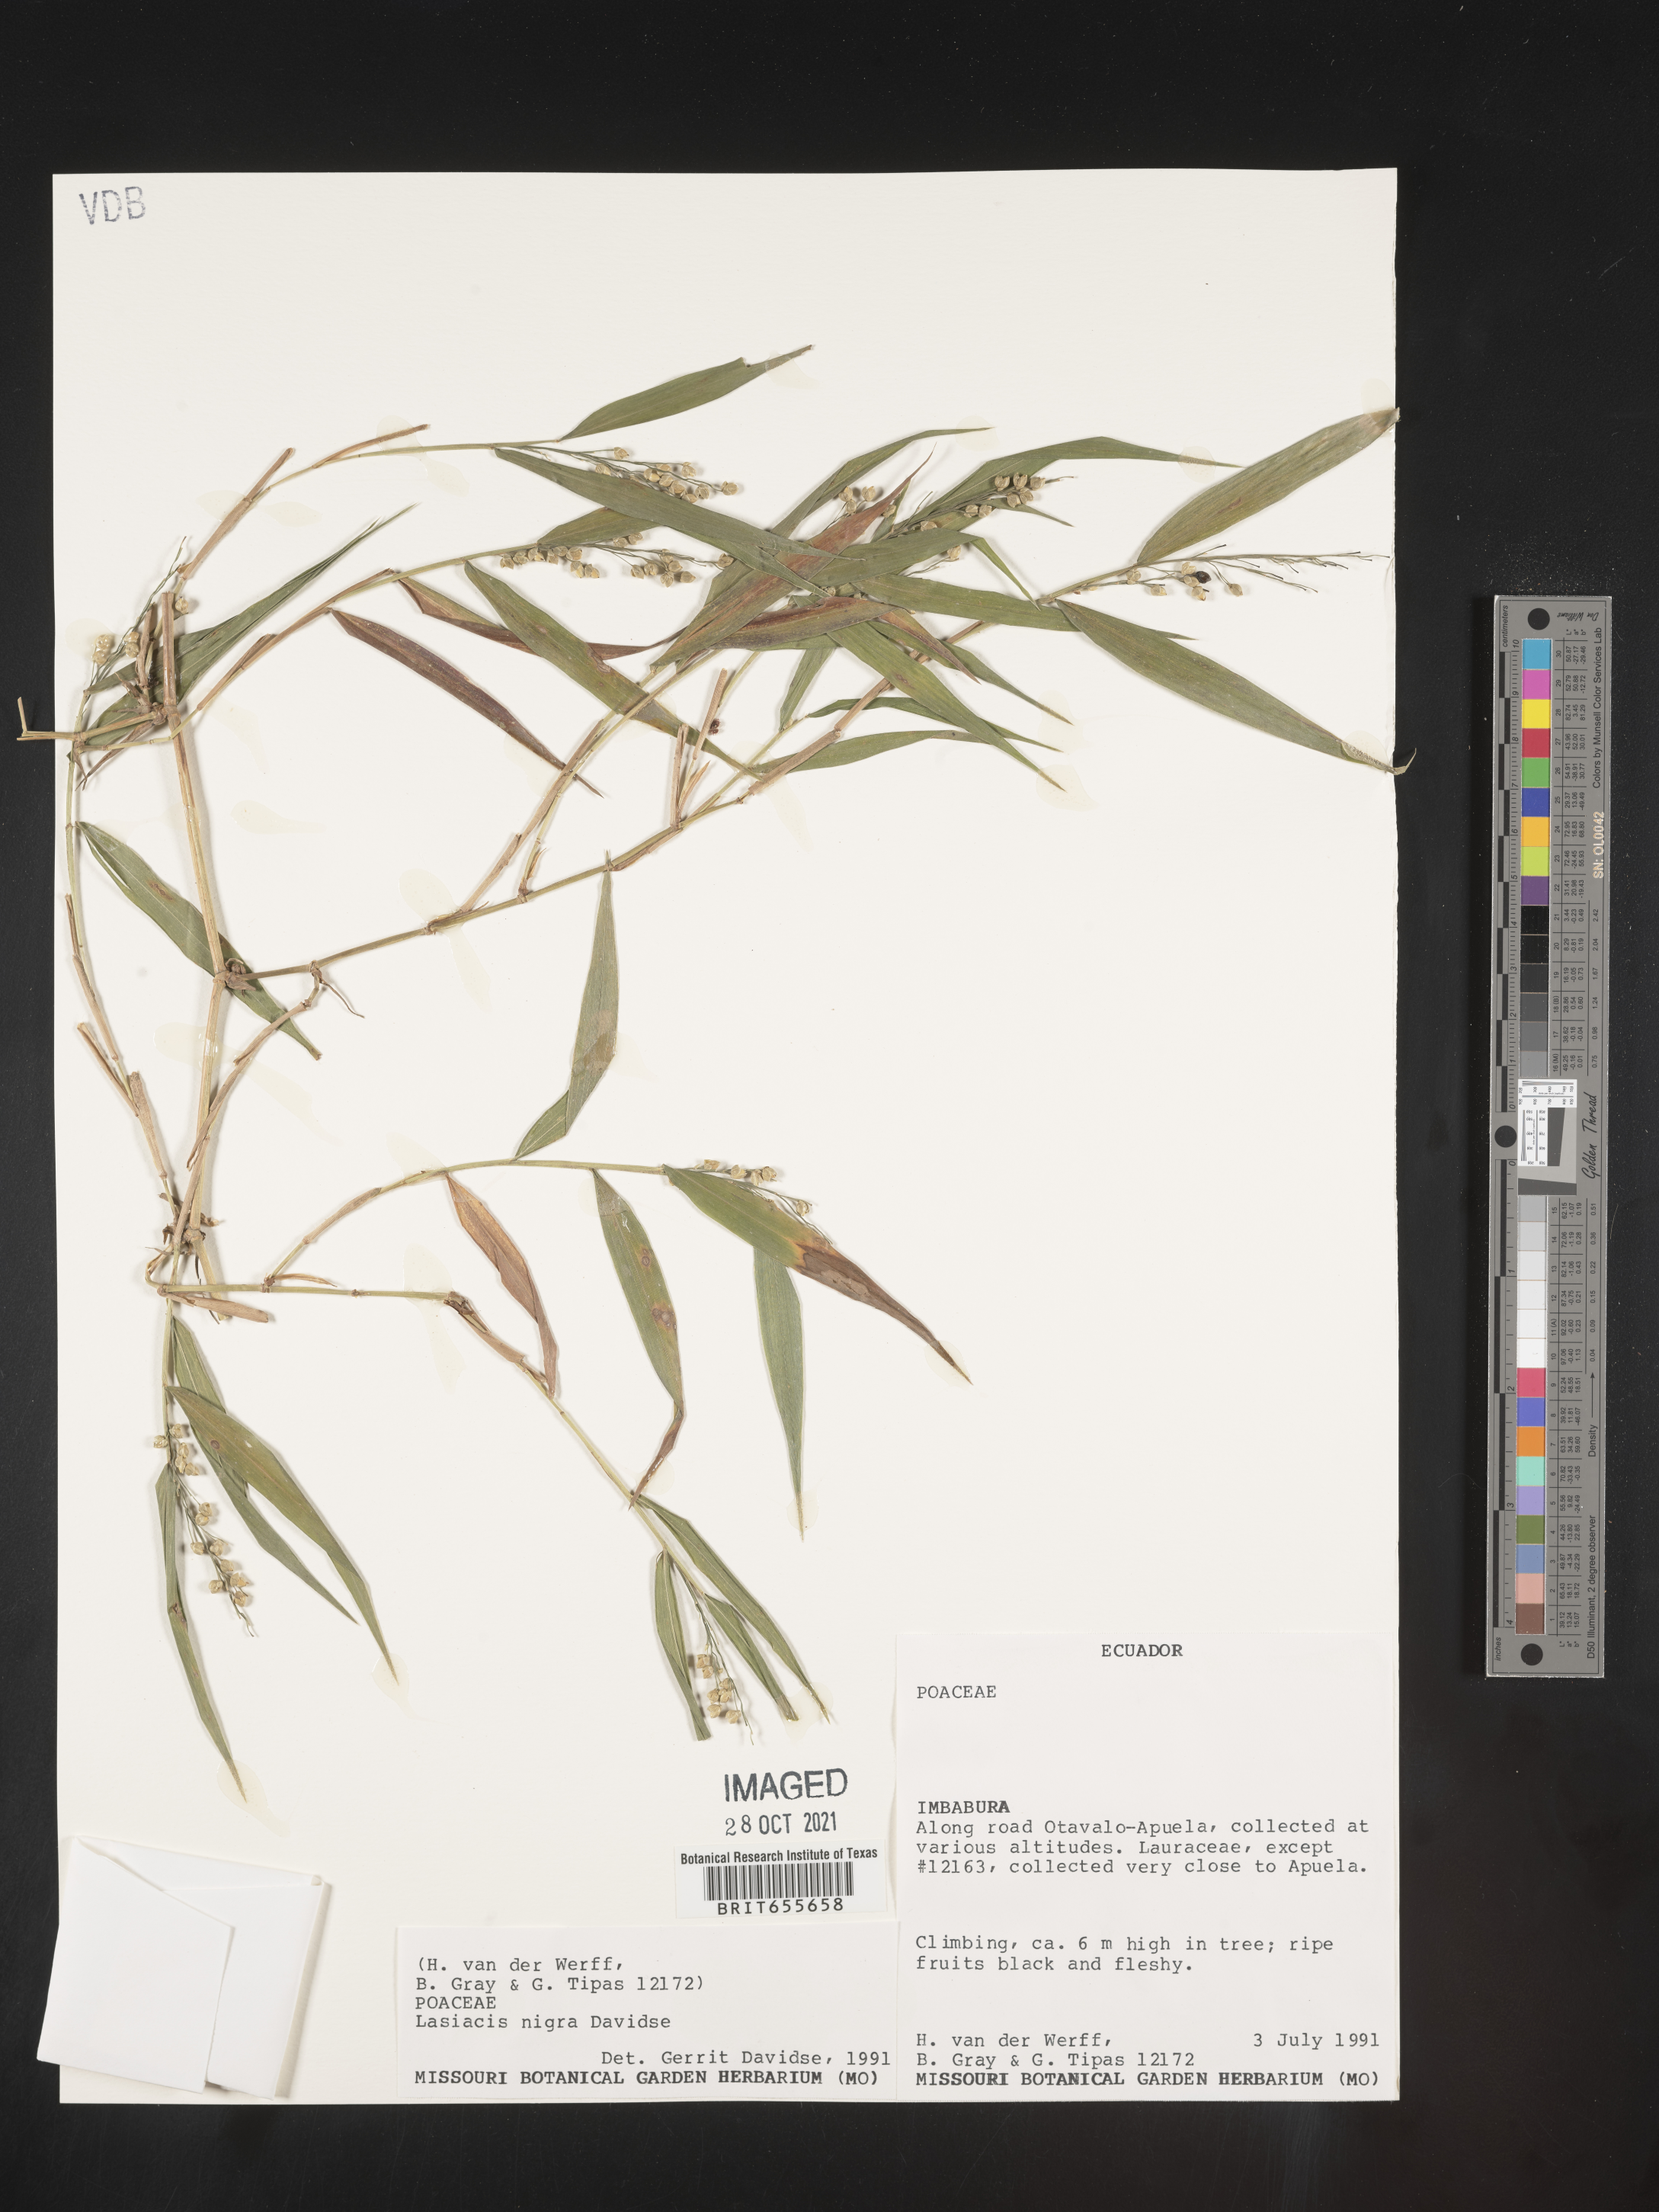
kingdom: Plantae
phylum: Tracheophyta
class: Liliopsida
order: Poales
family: Poaceae
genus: Lasiacis
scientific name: Lasiacis
